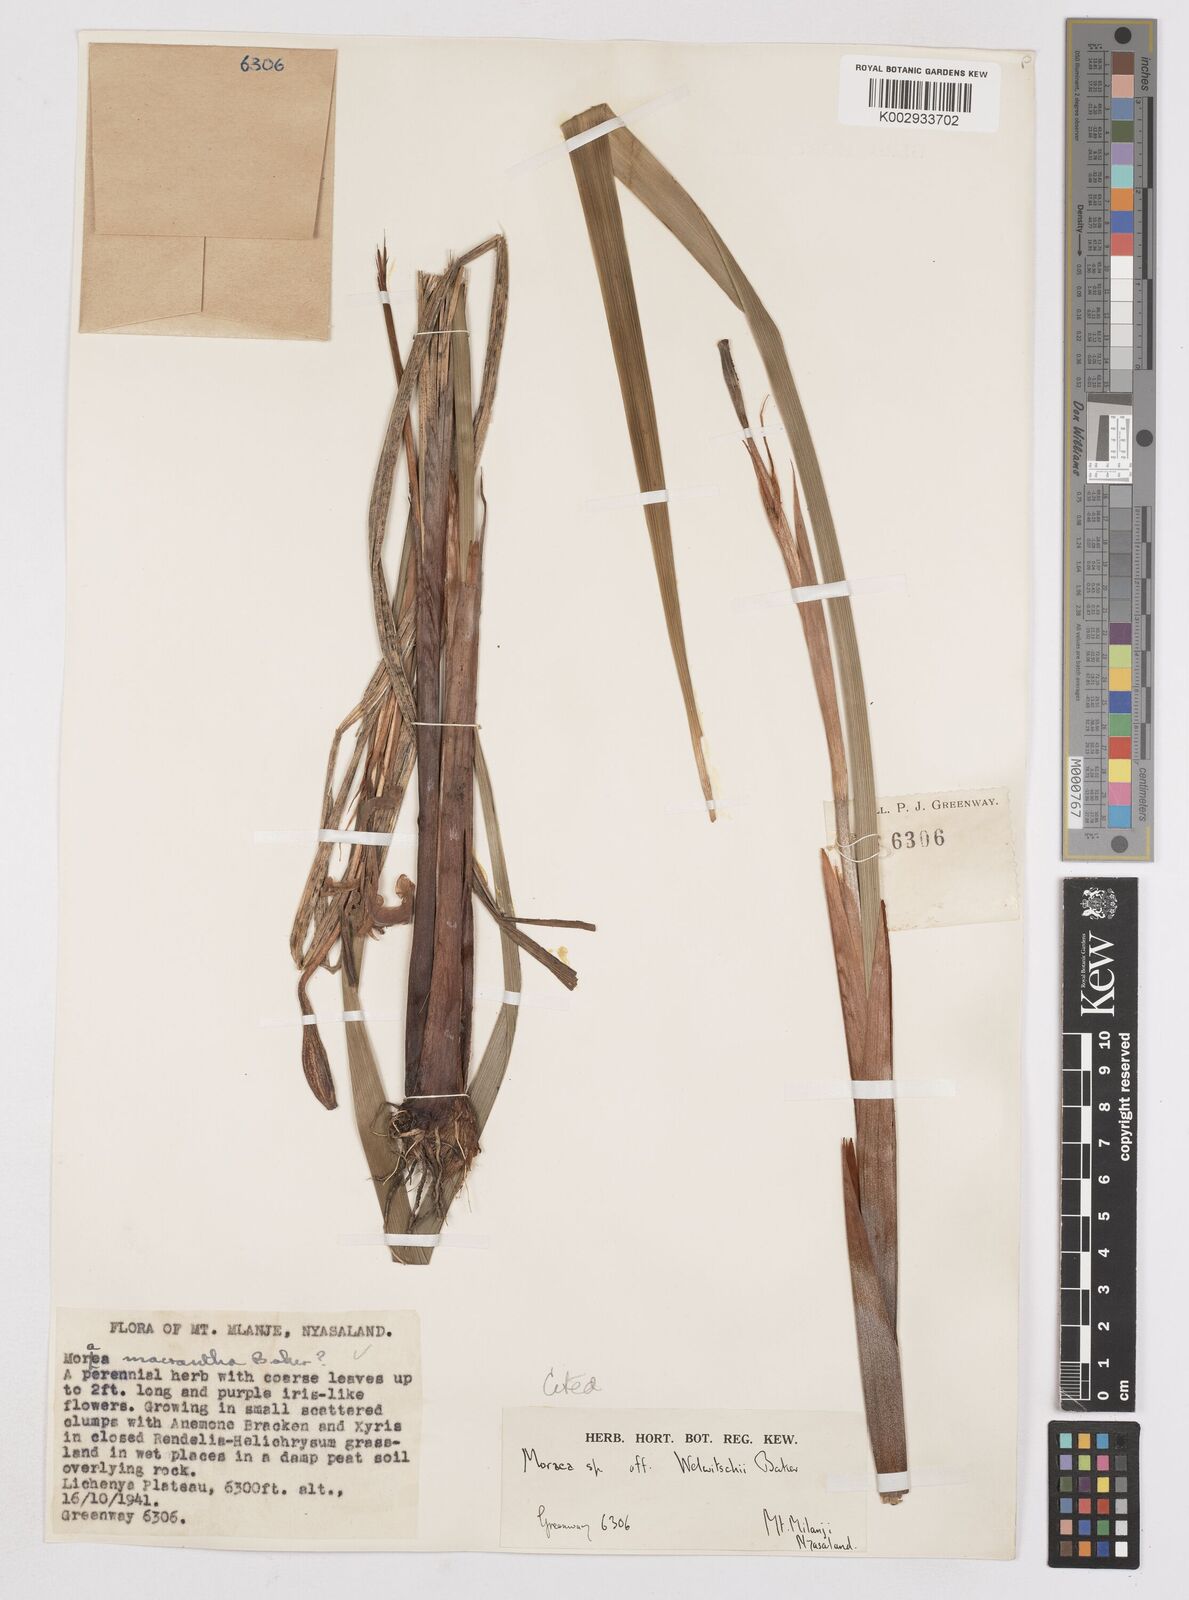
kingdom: Plantae
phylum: Tracheophyta
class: Liliopsida
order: Asparagales
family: Iridaceae
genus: Moraea
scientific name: Moraea schimperi
